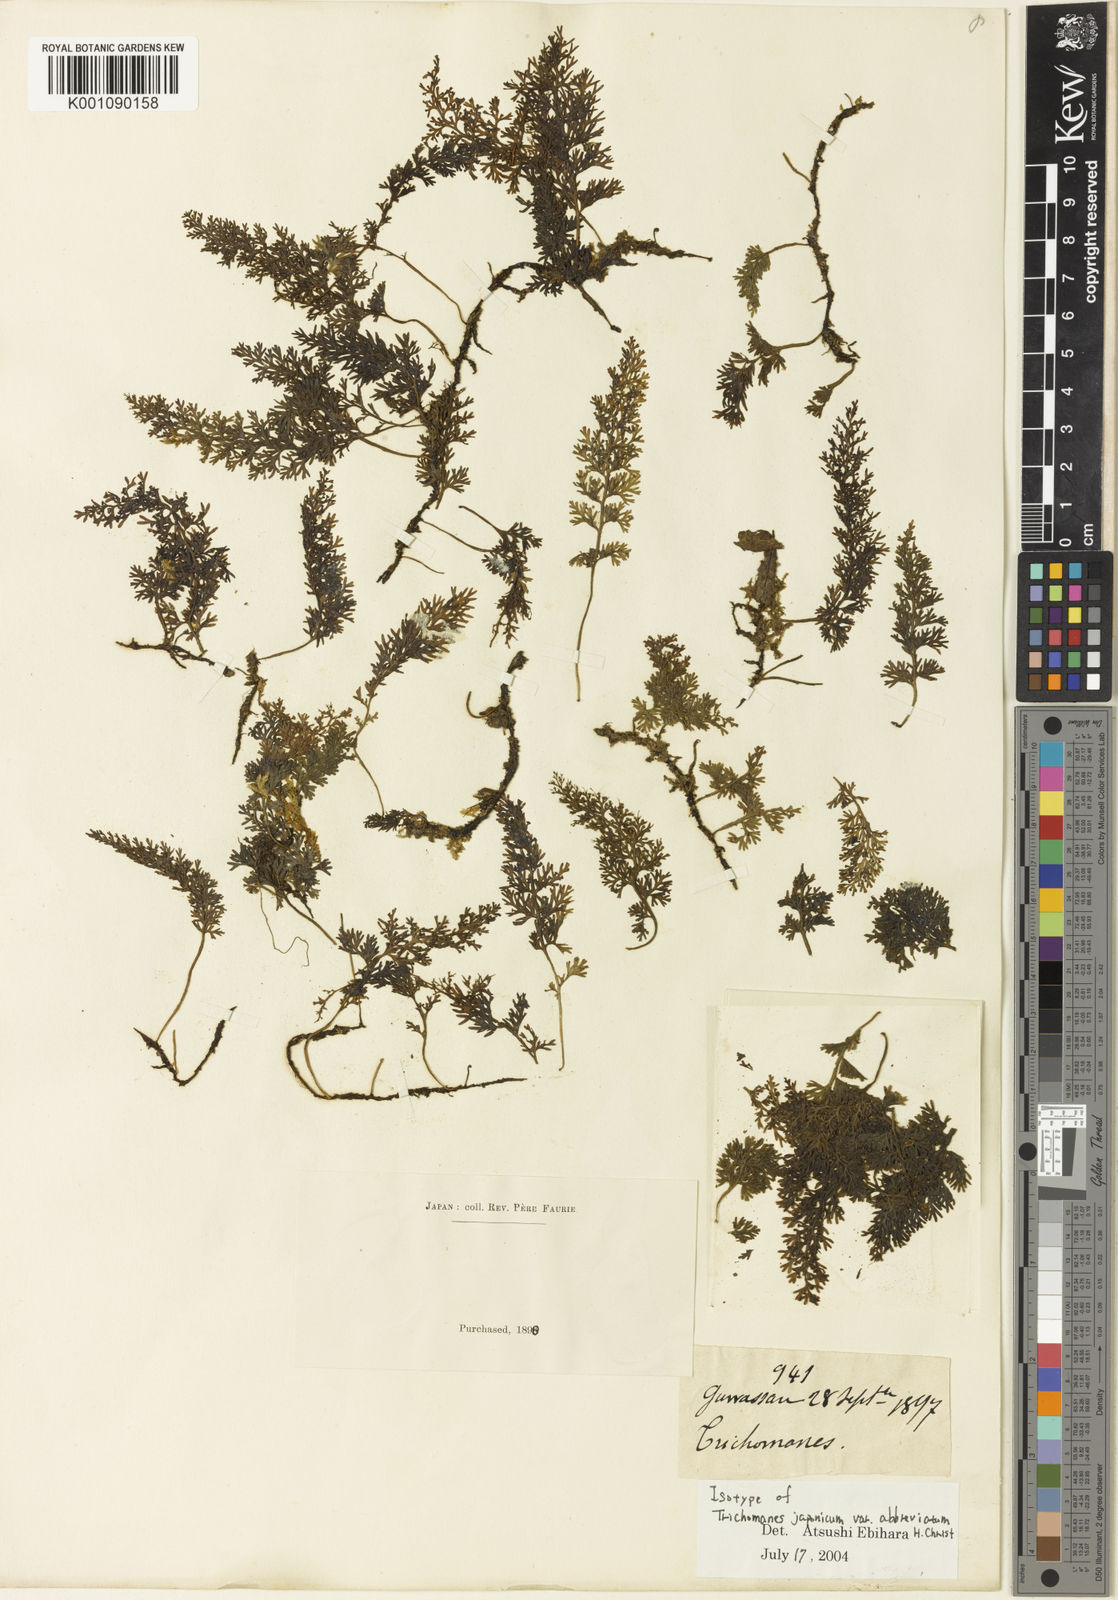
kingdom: Plantae
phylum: Tracheophyta
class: Polypodiopsida
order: Hymenophyllales
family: Hymenophyllaceae
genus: Vandenboschia
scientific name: Vandenboschia birmanica
